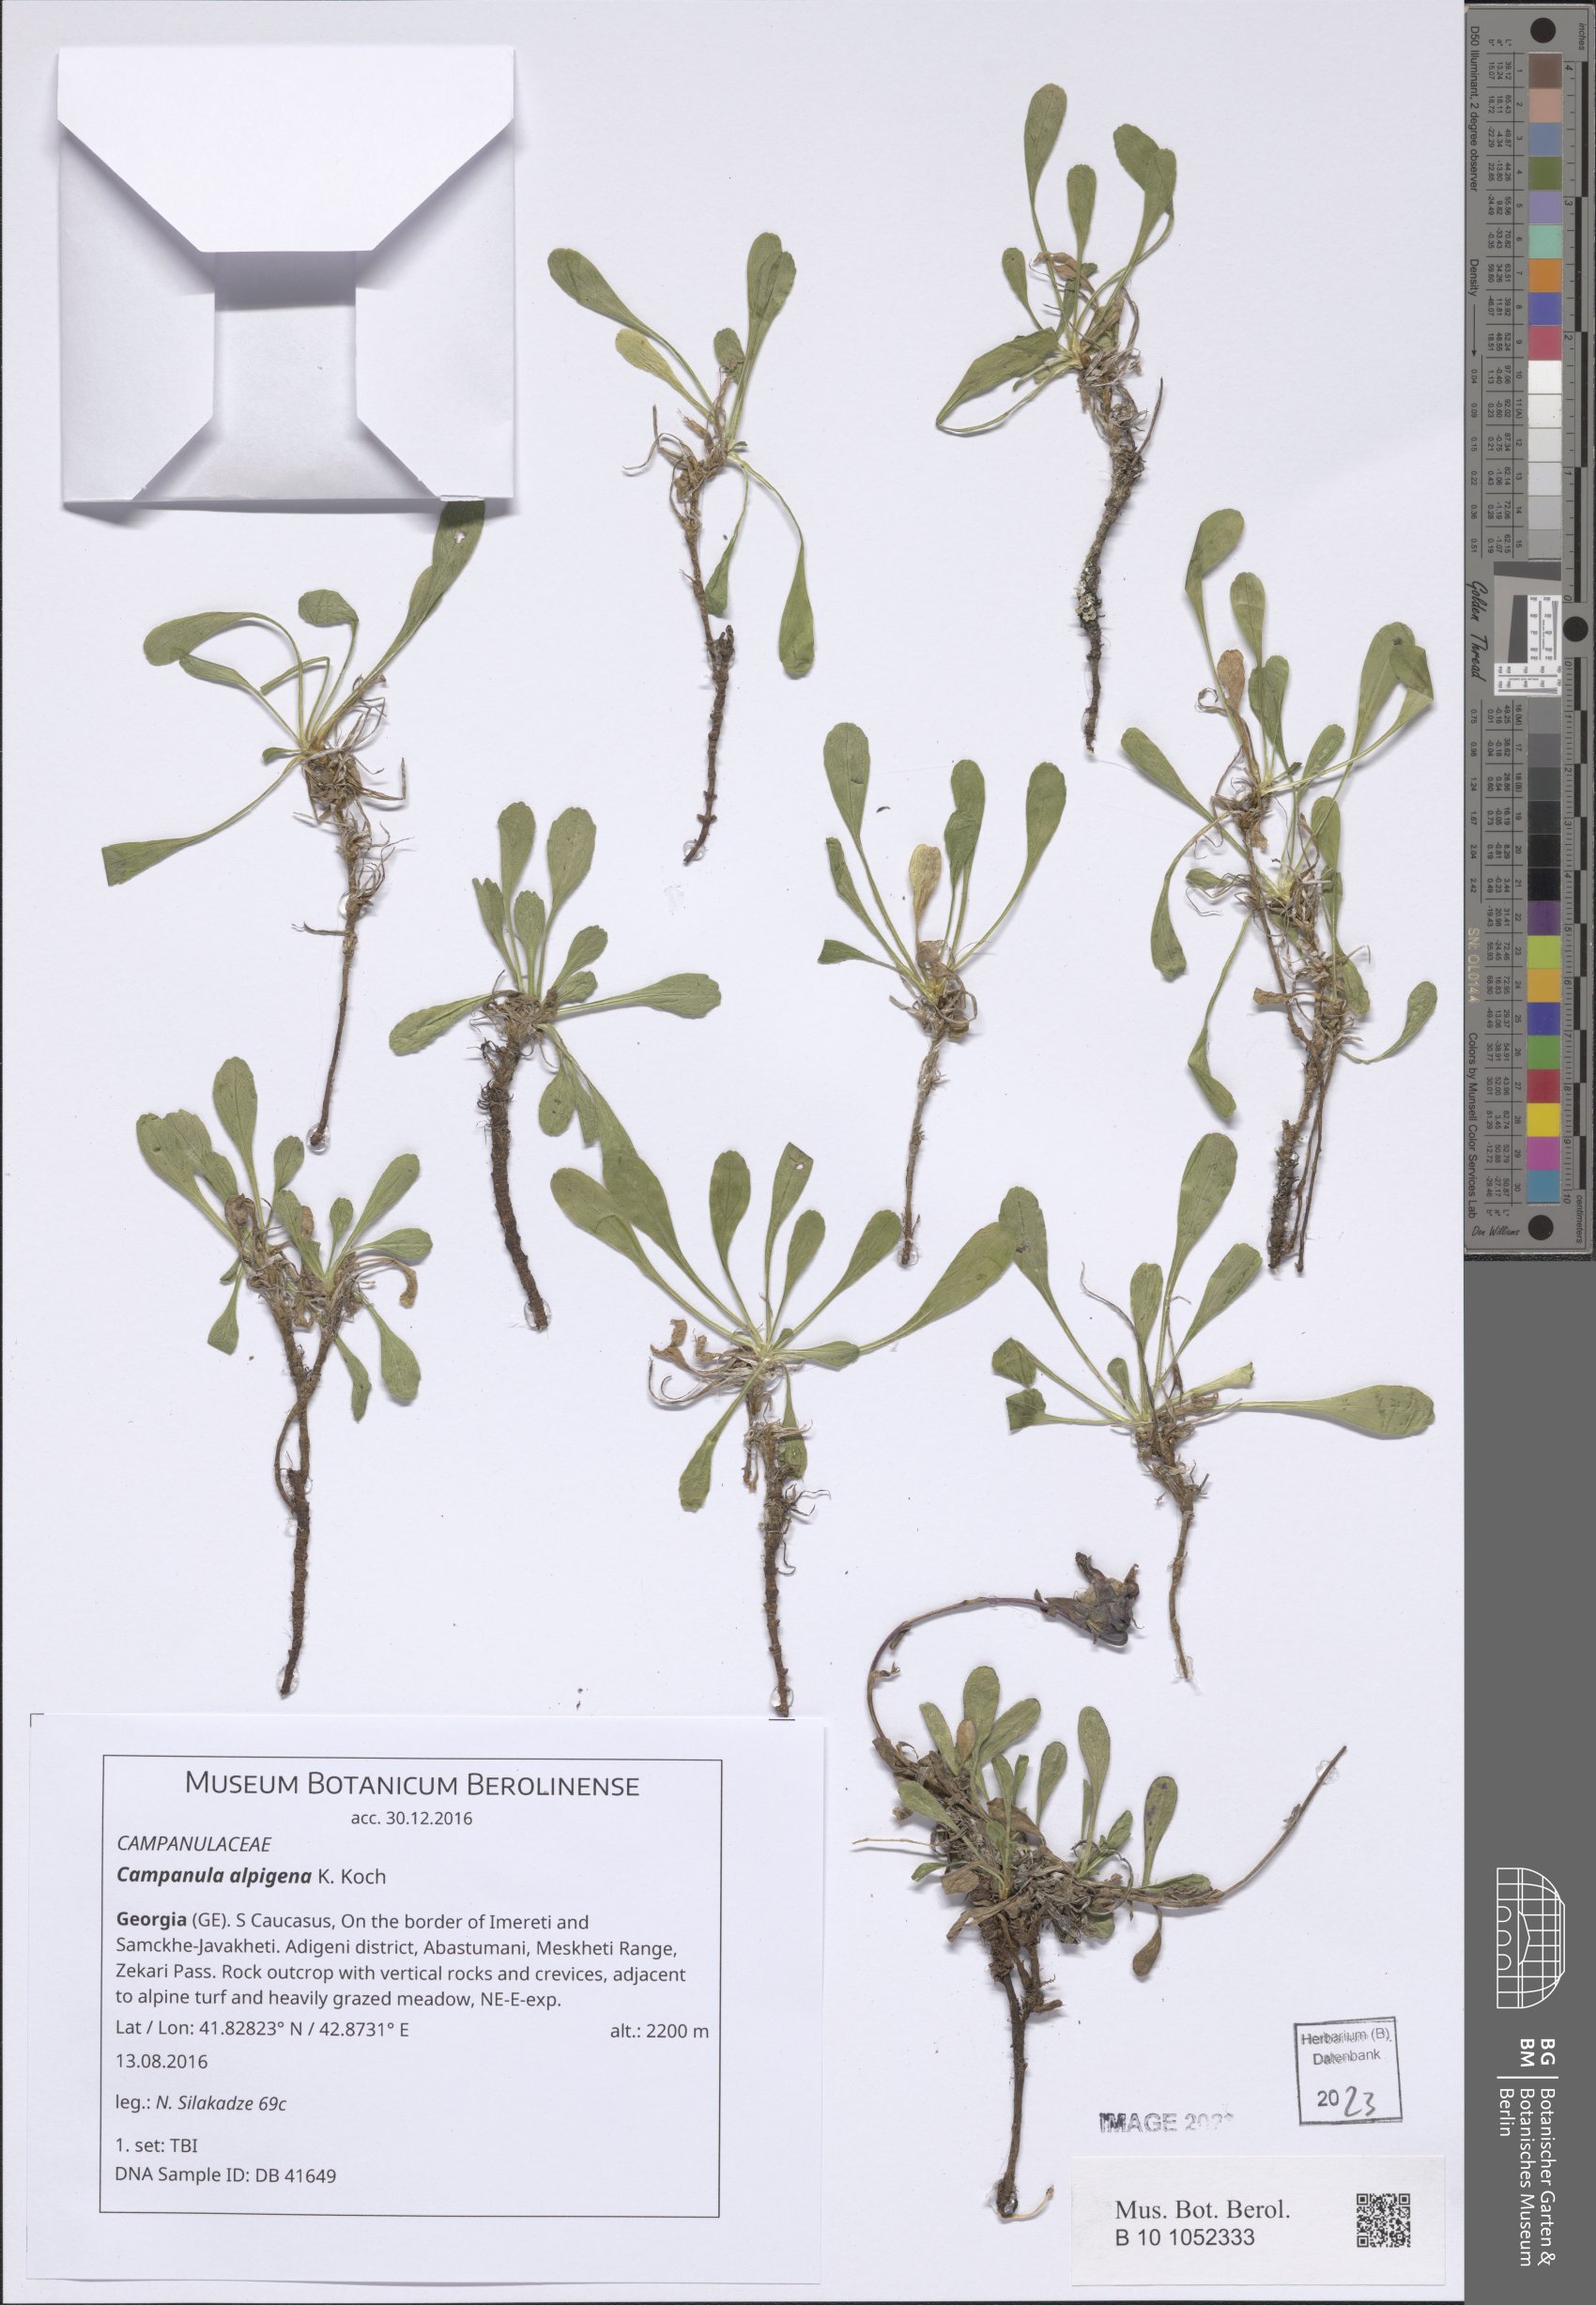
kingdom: Plantae
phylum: Tracheophyta
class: Magnoliopsida
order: Asterales
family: Campanulaceae
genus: Campanula
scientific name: Campanula saxifraga
